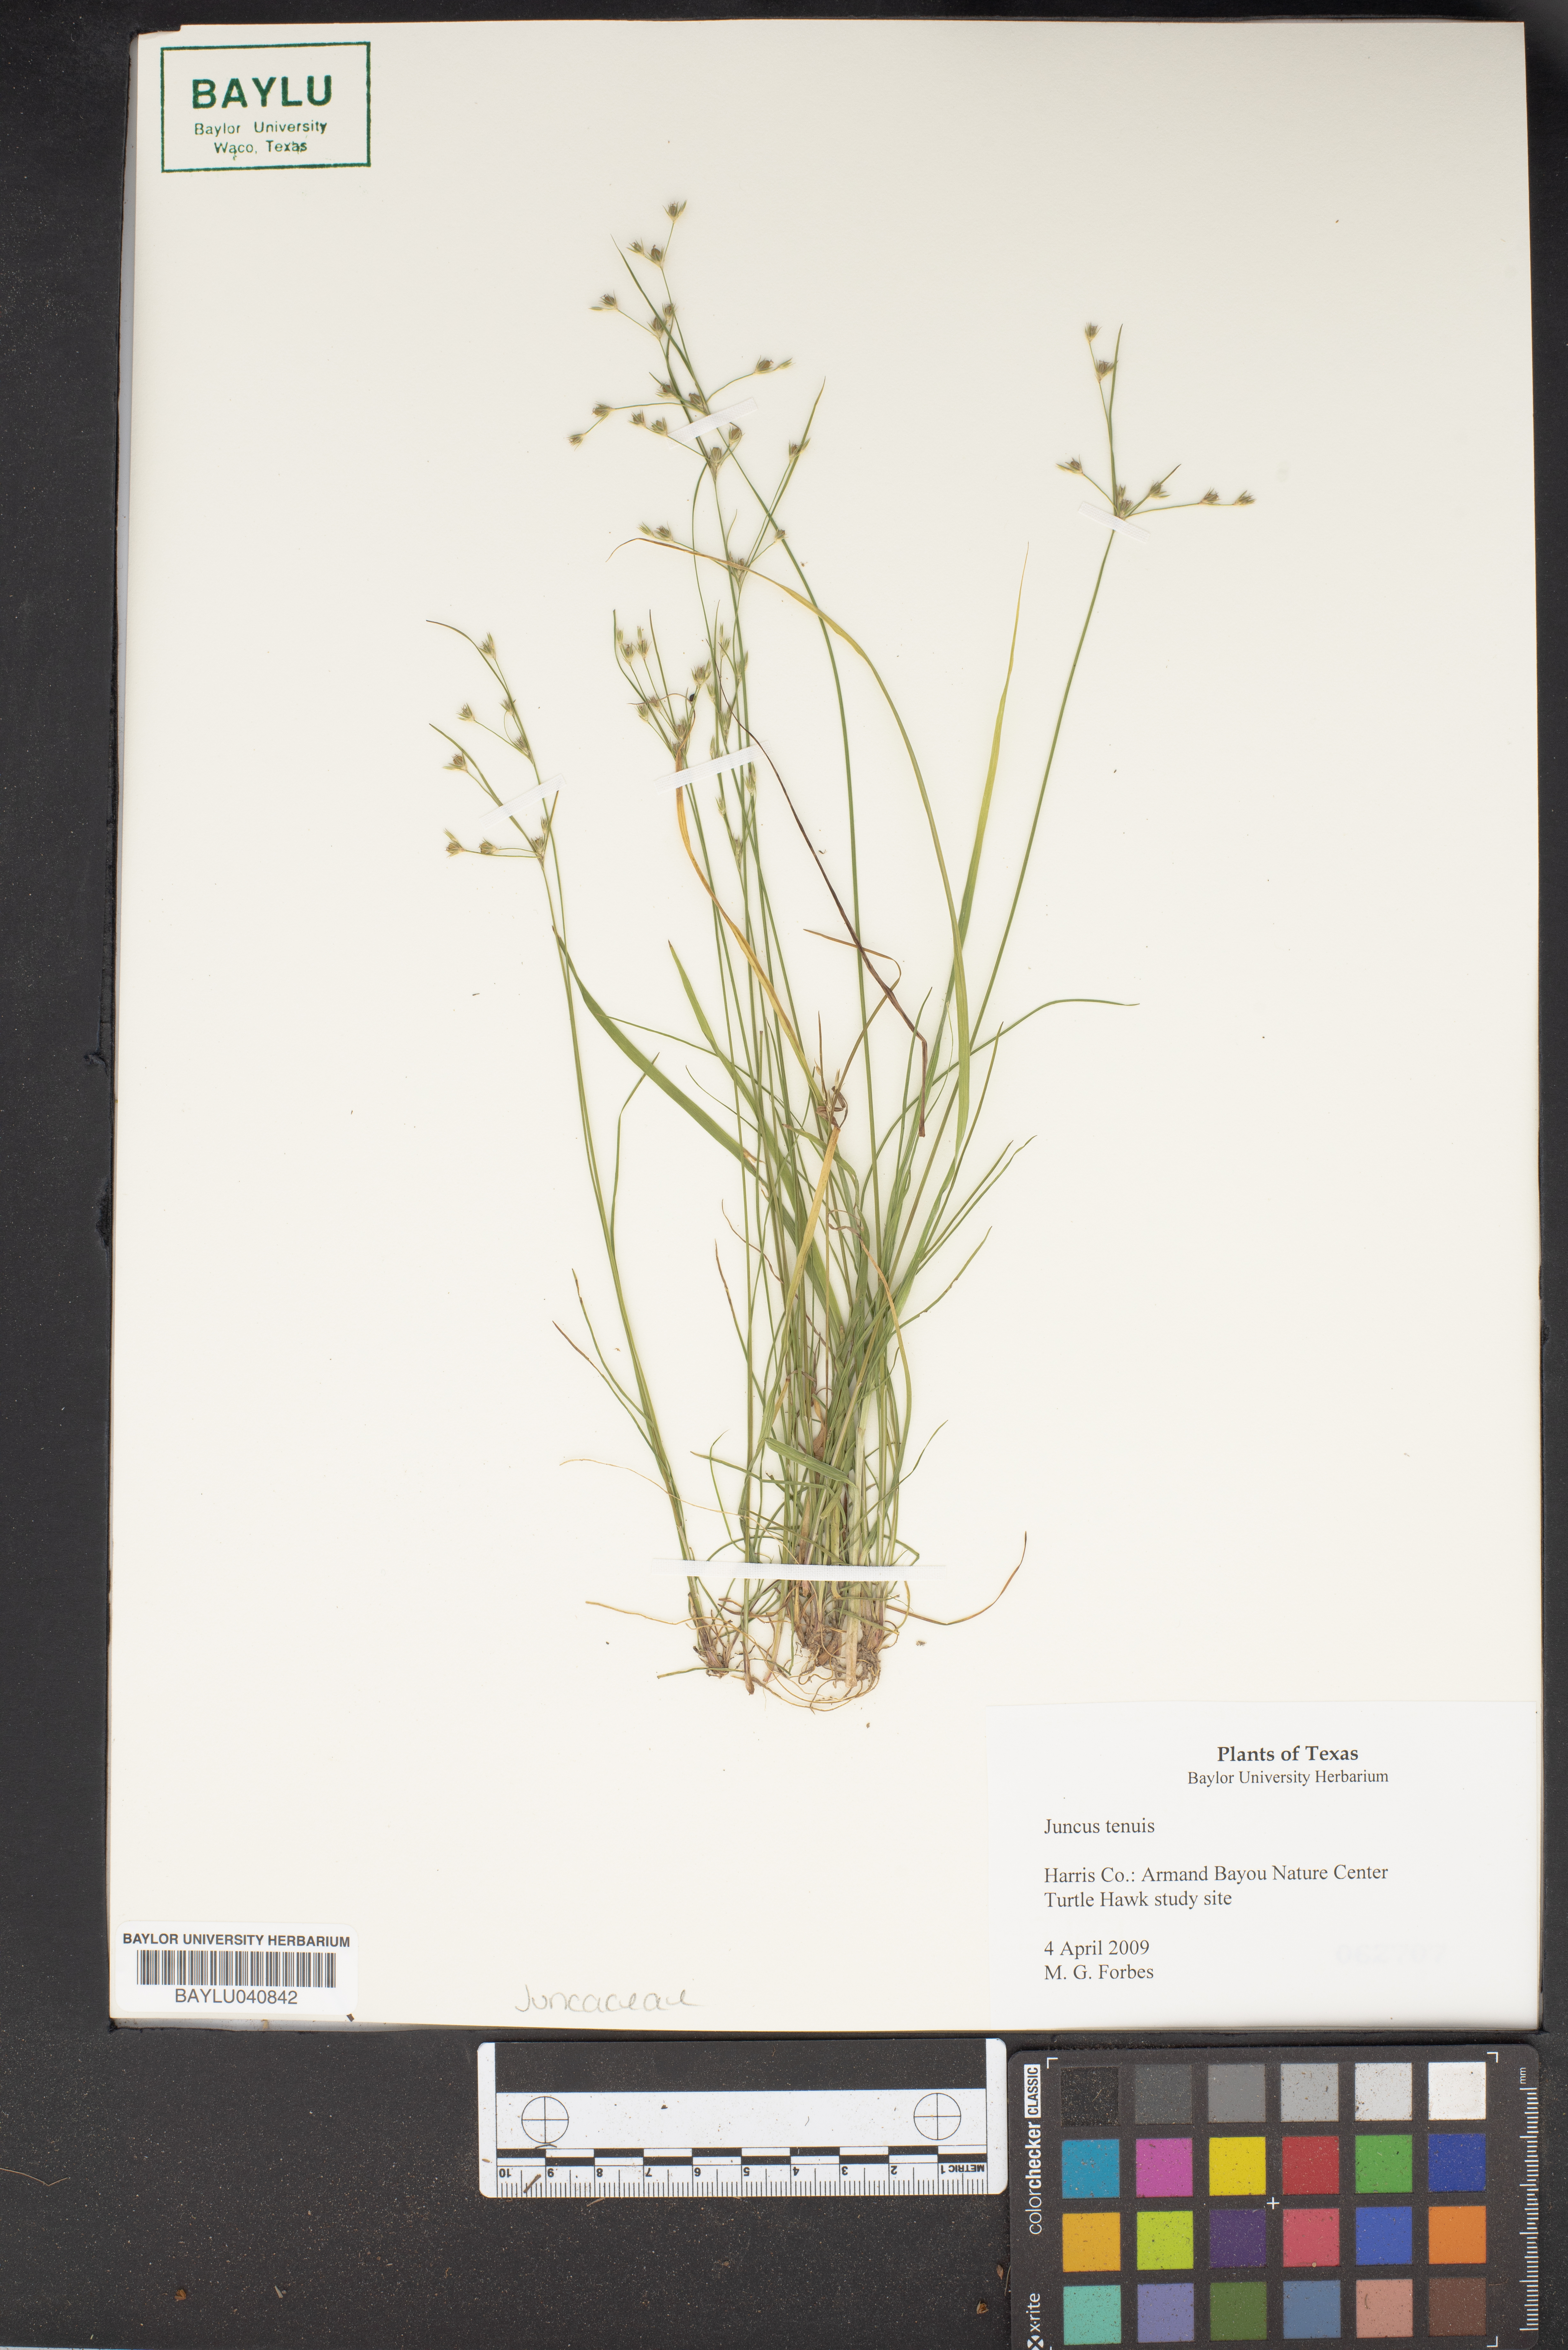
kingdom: Plantae
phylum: Tracheophyta
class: Liliopsida
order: Poales
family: Juncaceae
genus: Juncus
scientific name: Juncus tenuis
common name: Slender rush
